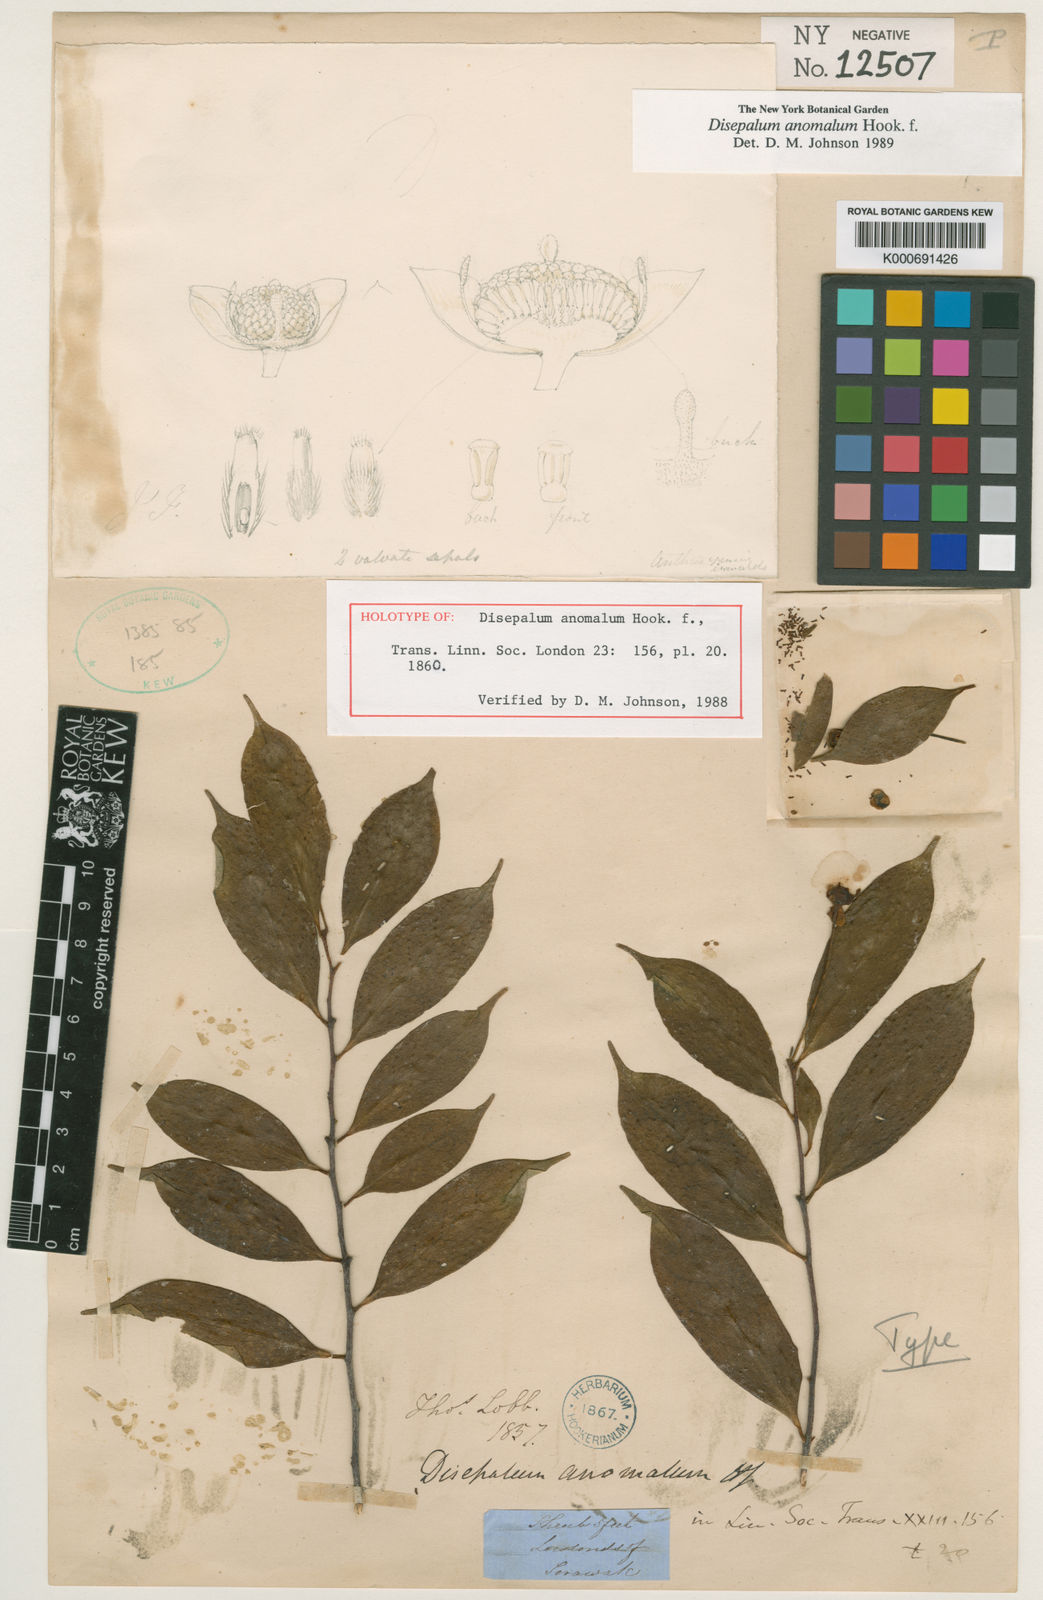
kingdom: Plantae
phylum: Tracheophyta
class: Magnoliopsida
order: Magnoliales
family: Annonaceae
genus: Disepalum
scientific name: Disepalum anomalum
